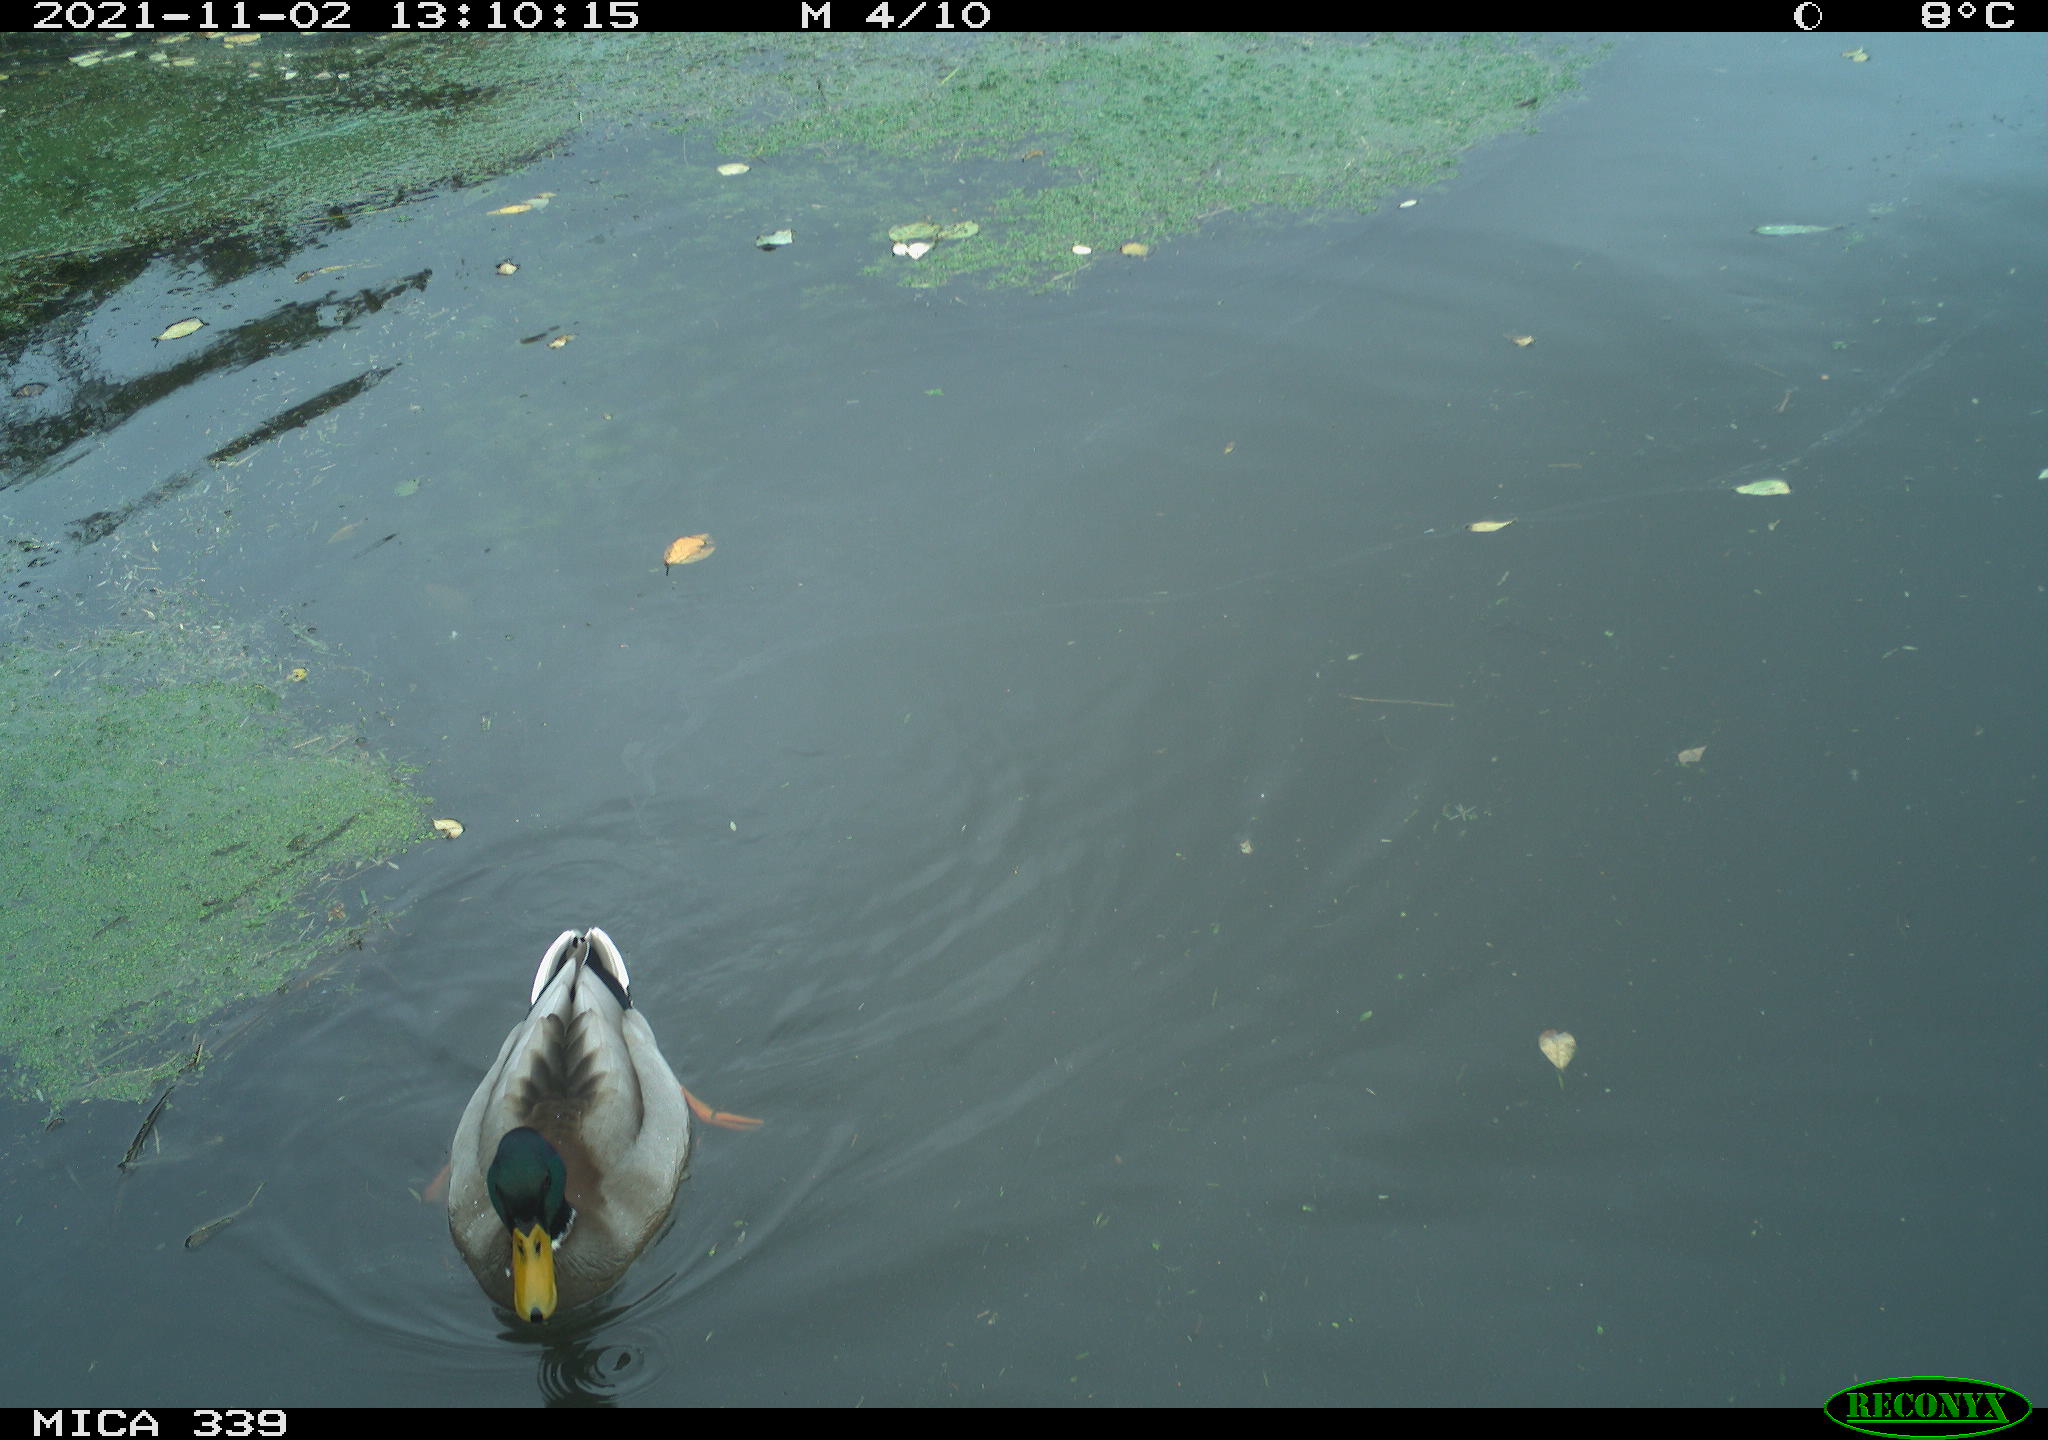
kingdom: Animalia
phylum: Chordata
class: Aves
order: Anseriformes
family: Anatidae
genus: Anas
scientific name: Anas platyrhynchos
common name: Mallard
